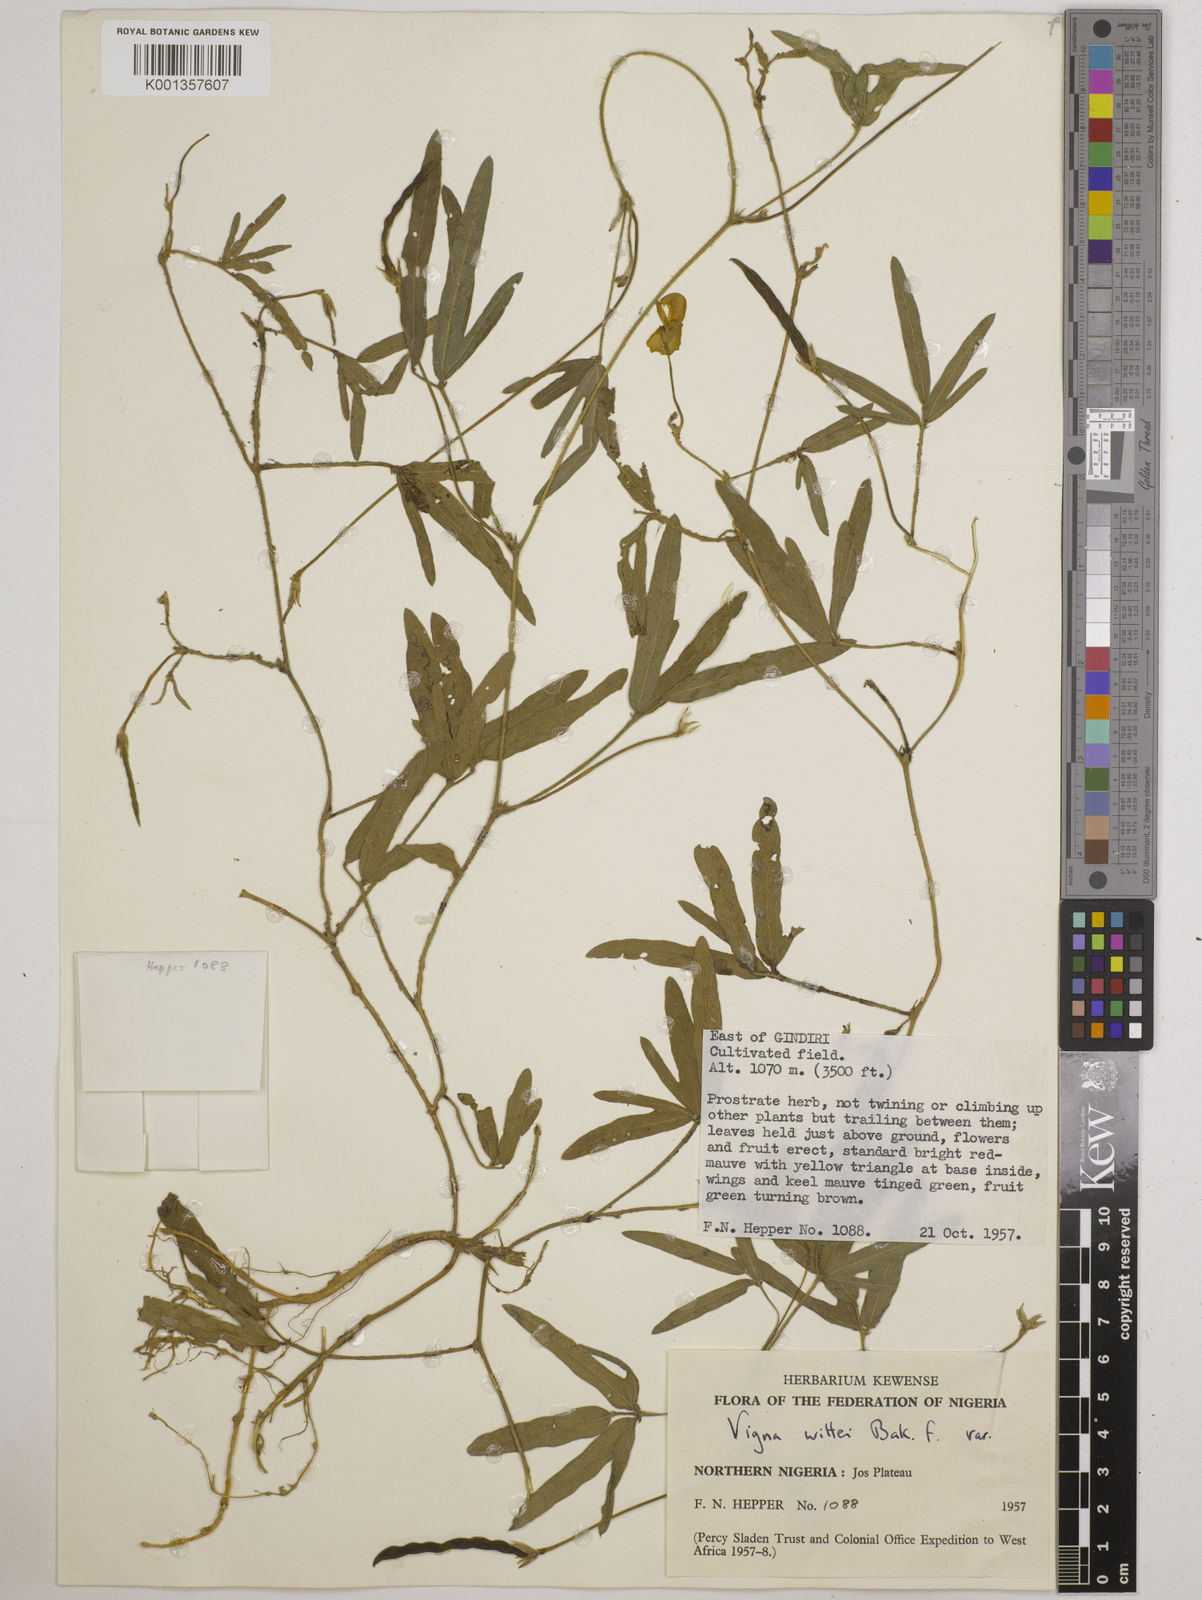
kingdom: Plantae
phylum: Tracheophyta
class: Magnoliopsida
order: Fabales
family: Fabaceae
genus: Vigna
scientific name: Vigna wittei
